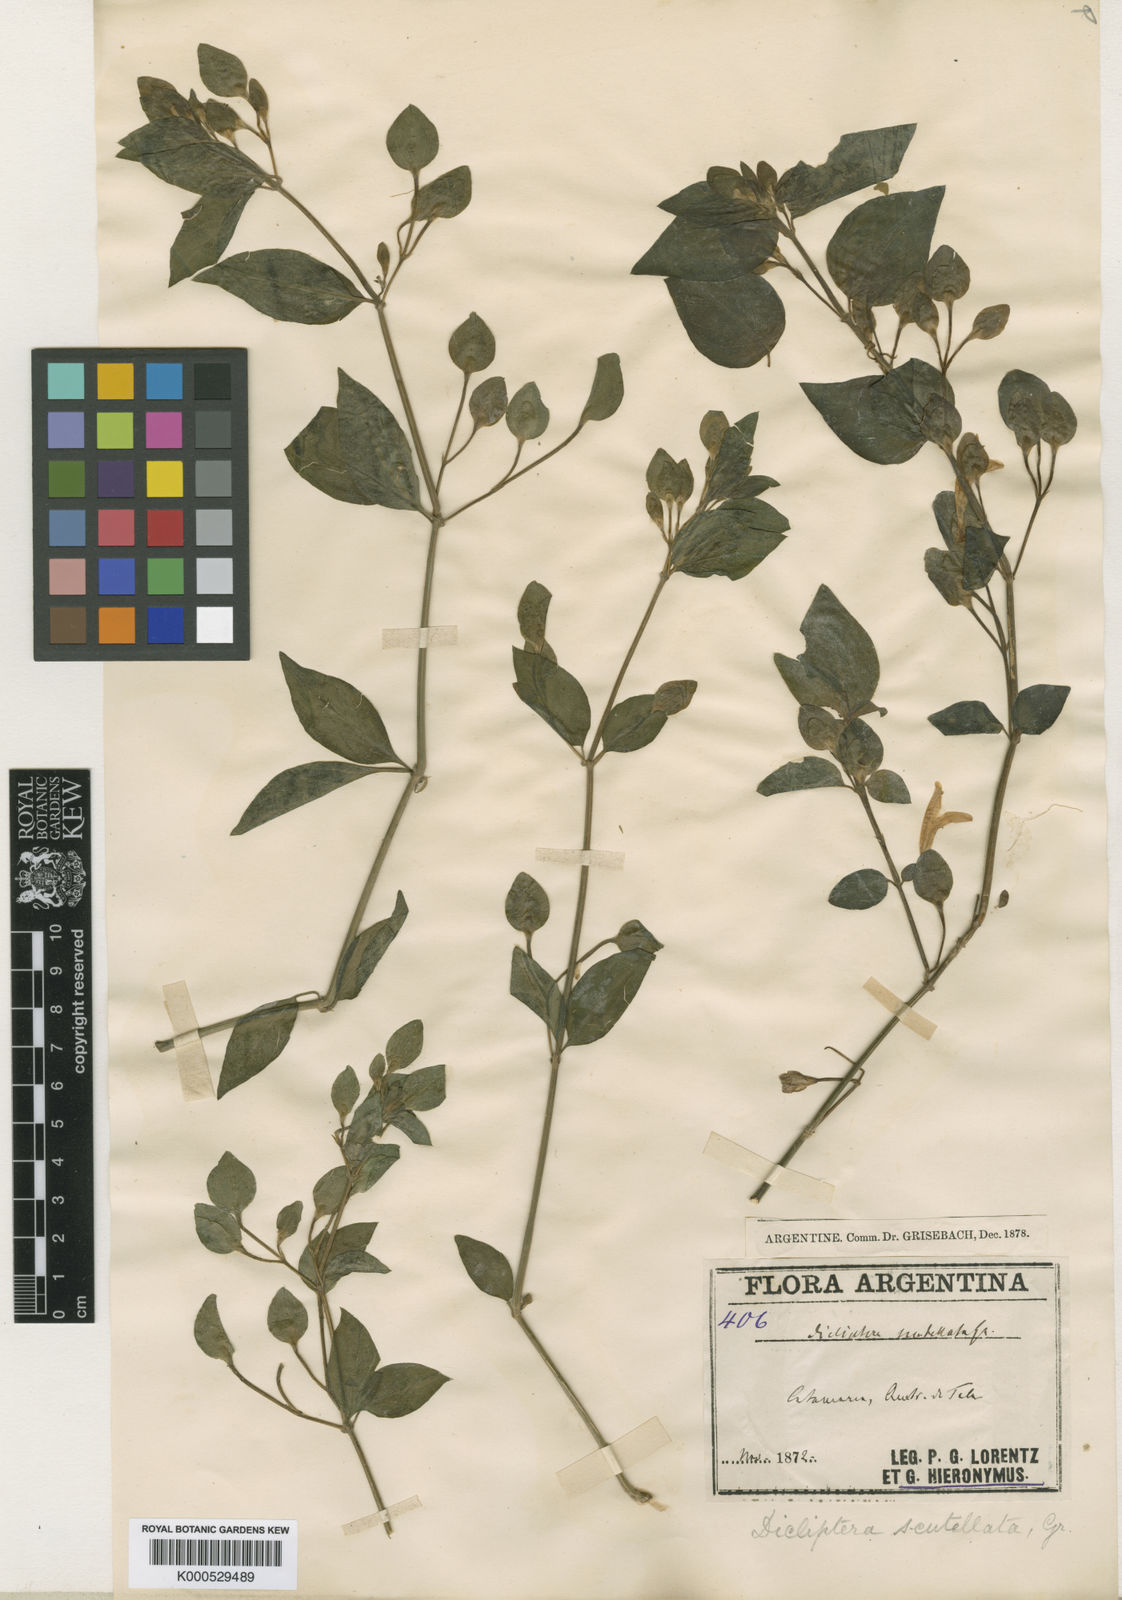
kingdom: Plantae
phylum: Tracheophyta
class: Magnoliopsida
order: Lamiales
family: Acanthaceae
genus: Dicliptera
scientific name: Dicliptera scutellata
